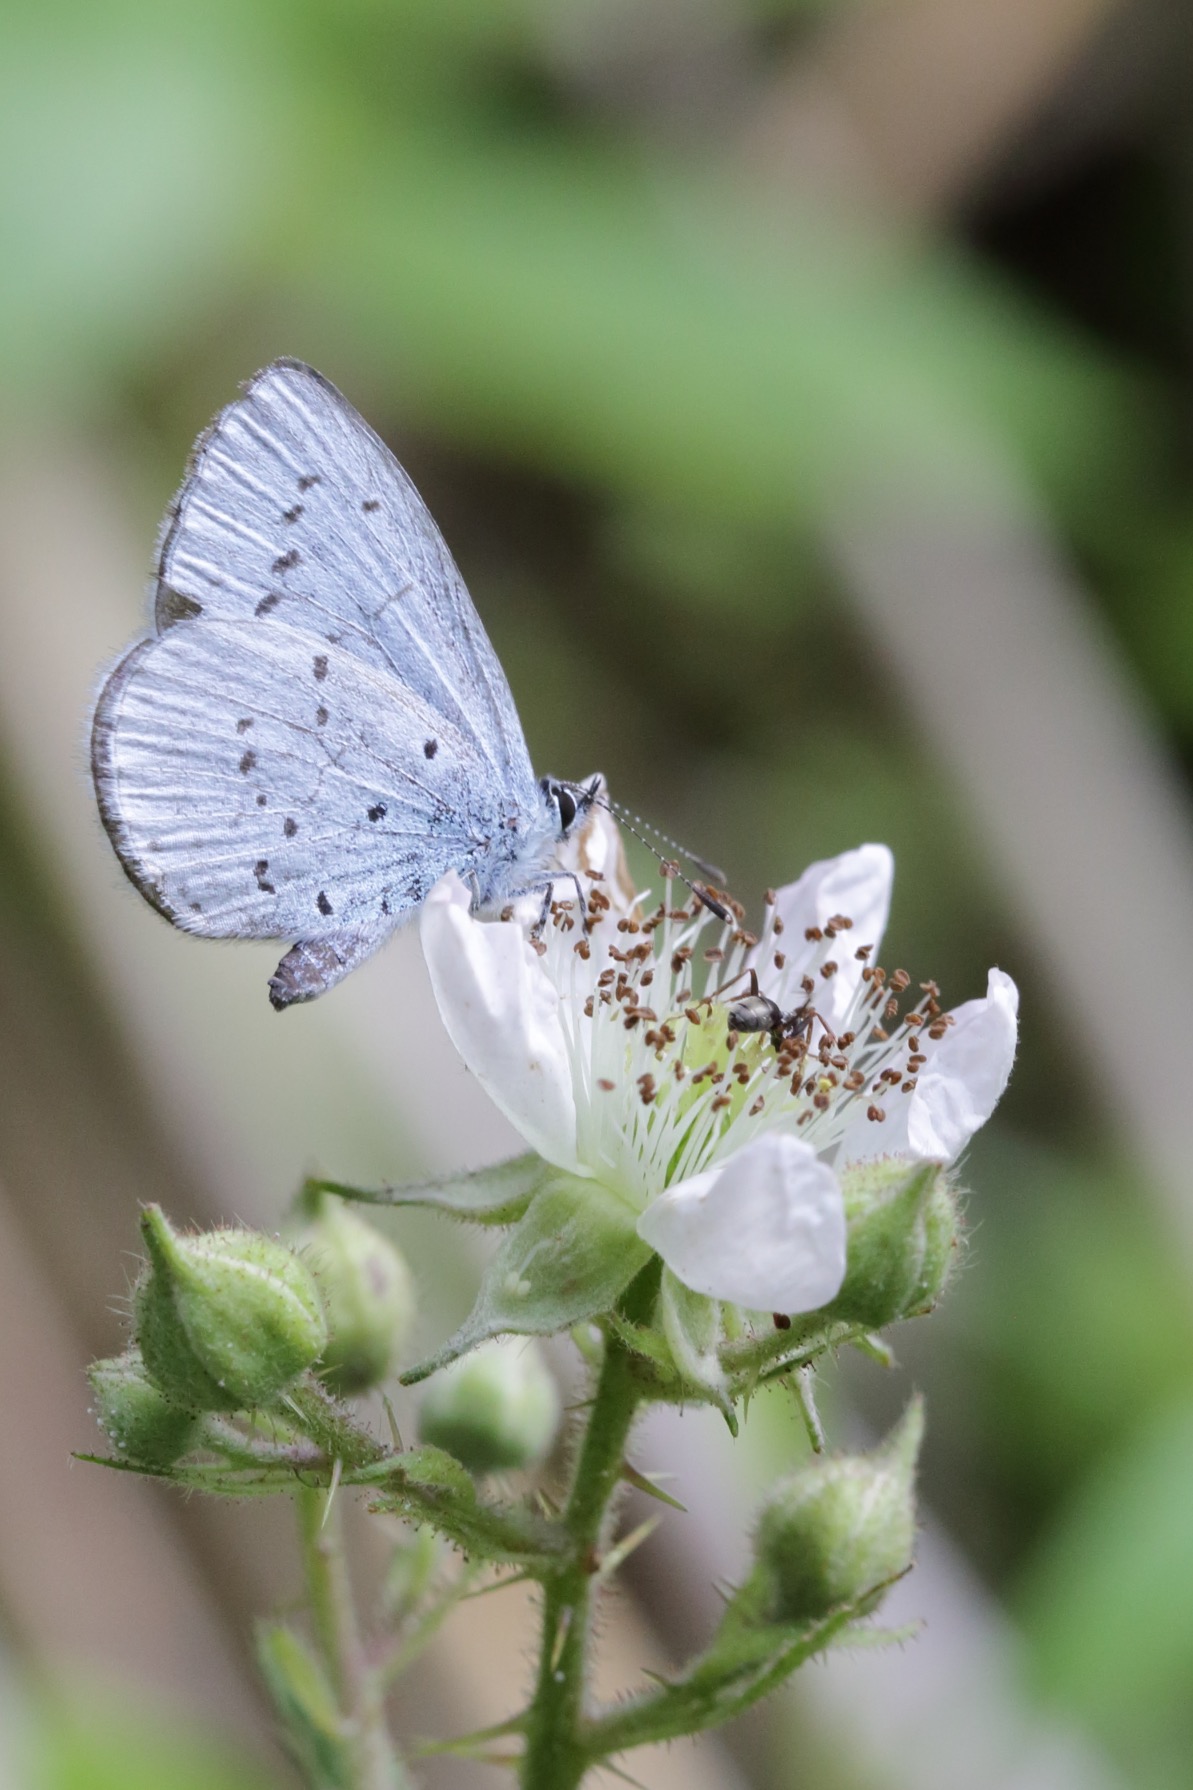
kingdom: Animalia
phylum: Arthropoda
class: Insecta
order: Lepidoptera
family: Lycaenidae
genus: Celastrina
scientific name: Celastrina argiolus
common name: Skovblåfugl
